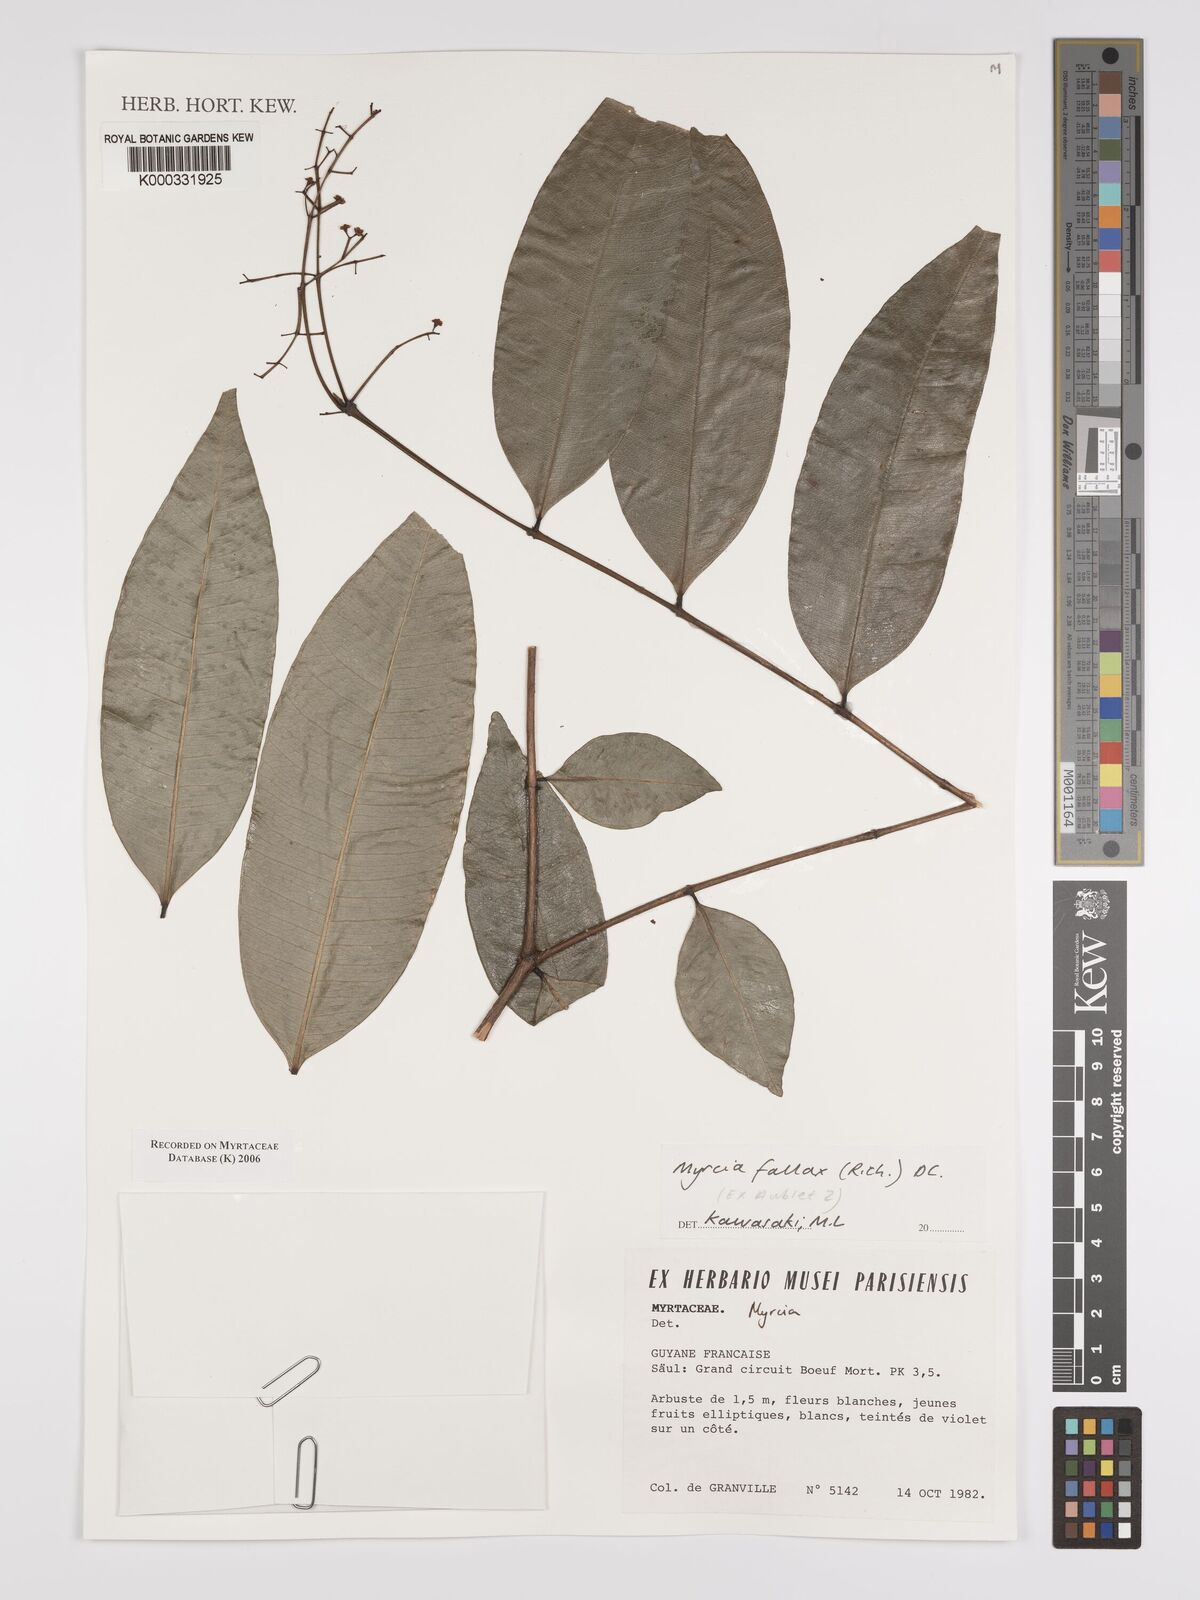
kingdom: Plantae
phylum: Tracheophyta
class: Magnoliopsida
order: Myrtales
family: Myrtaceae
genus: Myrcia
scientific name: Myrcia splendens
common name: Surinam cherry
